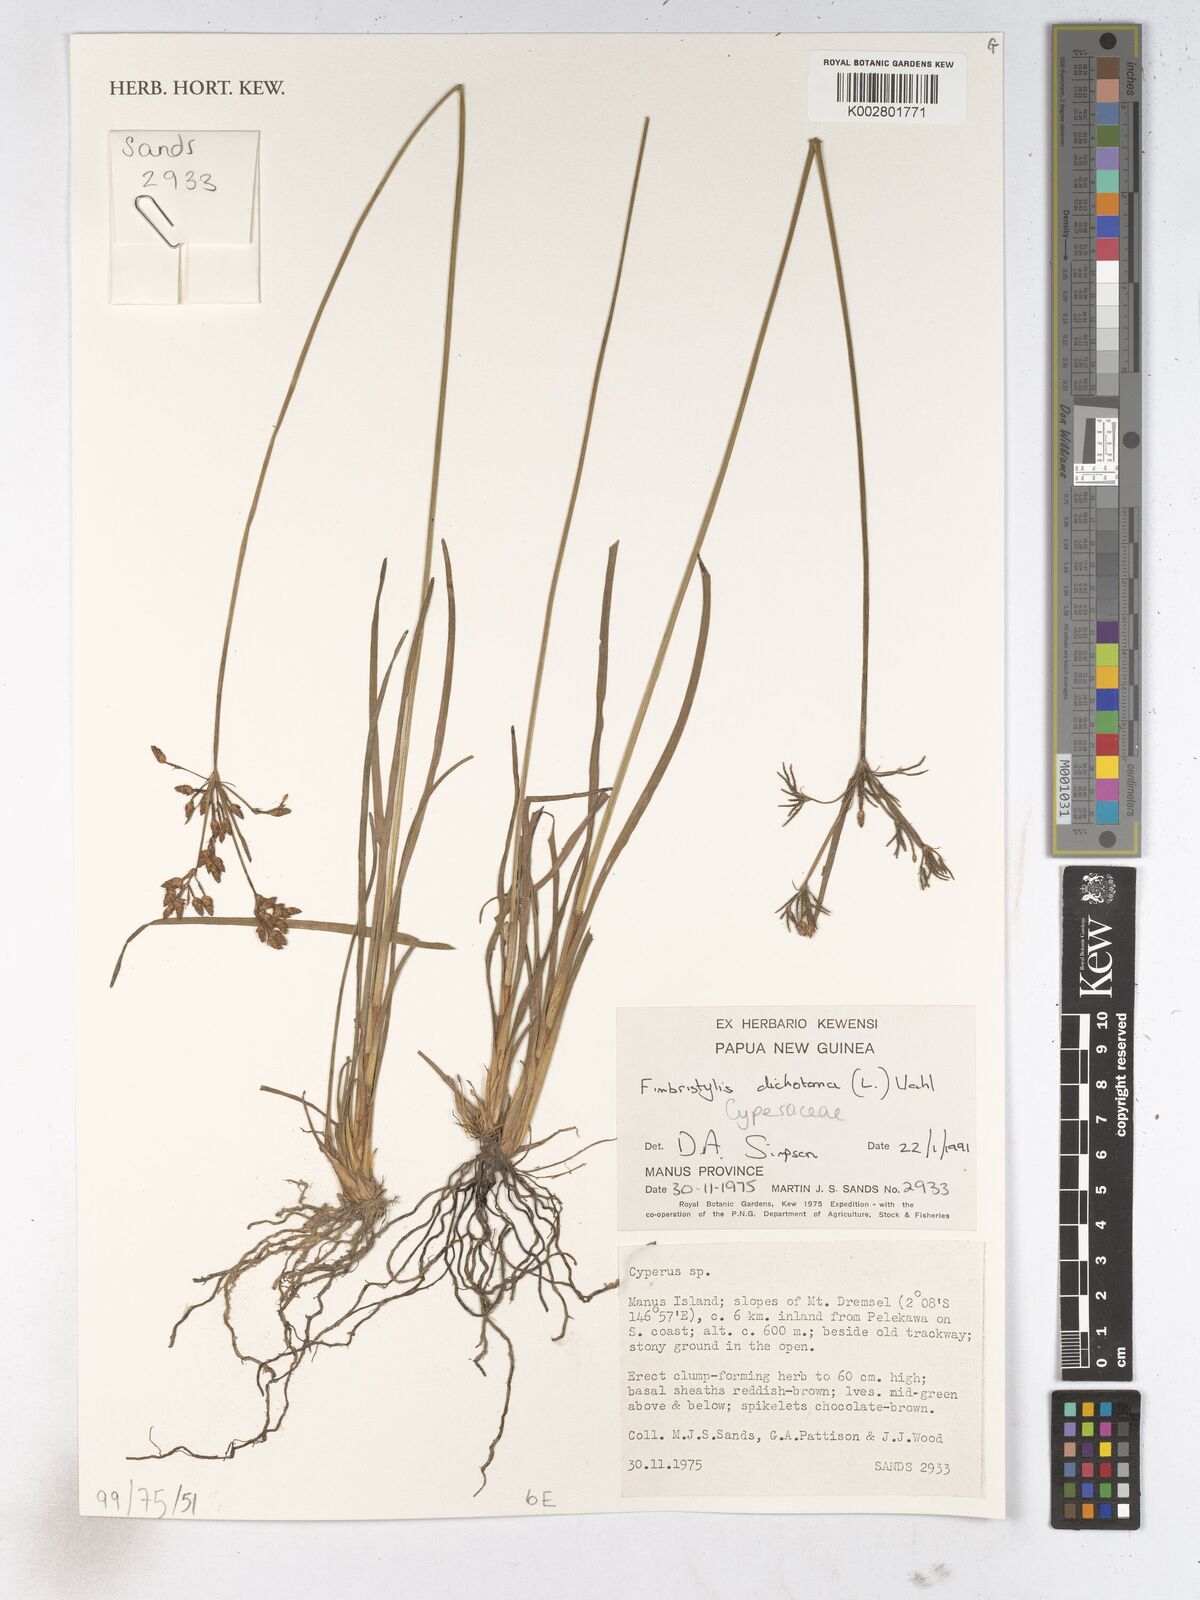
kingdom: Plantae
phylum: Tracheophyta
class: Liliopsida
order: Poales
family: Cyperaceae
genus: Fimbristylis
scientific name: Fimbristylis dichotoma
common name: Forked fimbry
